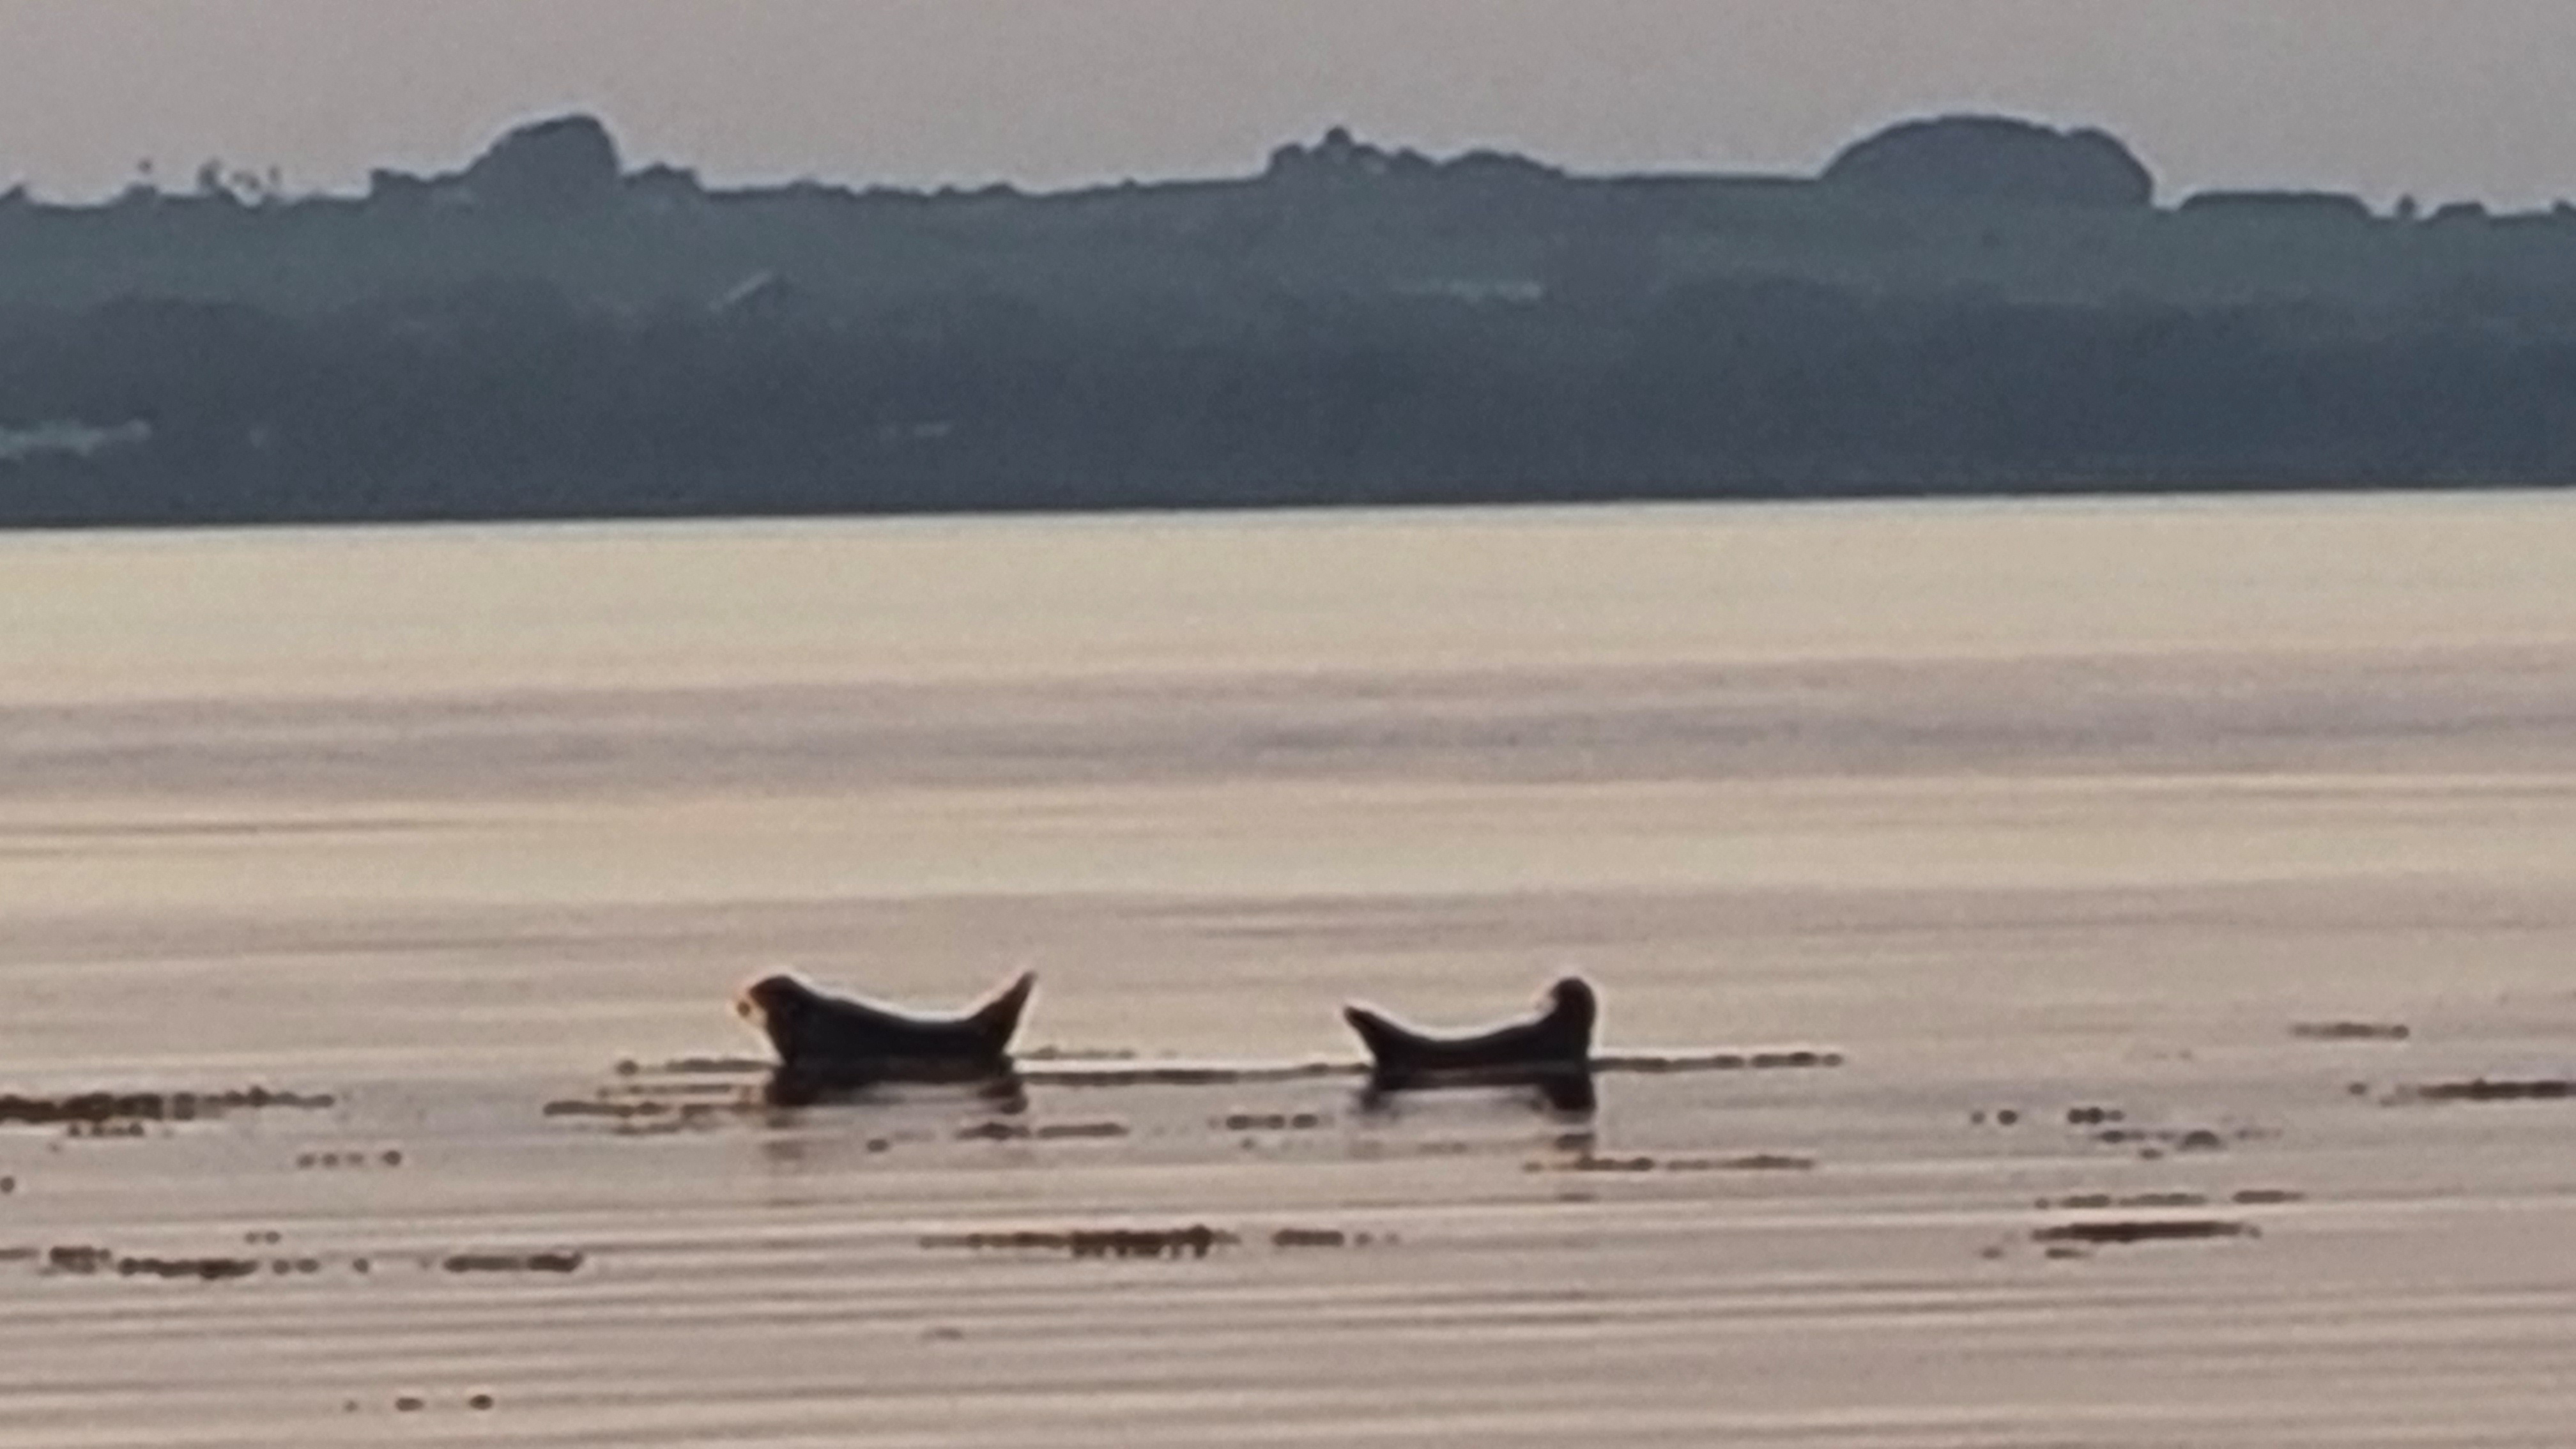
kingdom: Animalia
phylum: Chordata
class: Mammalia
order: Carnivora
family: Phocidae
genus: Phoca
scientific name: Phoca vitulina
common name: Spættet sæl
